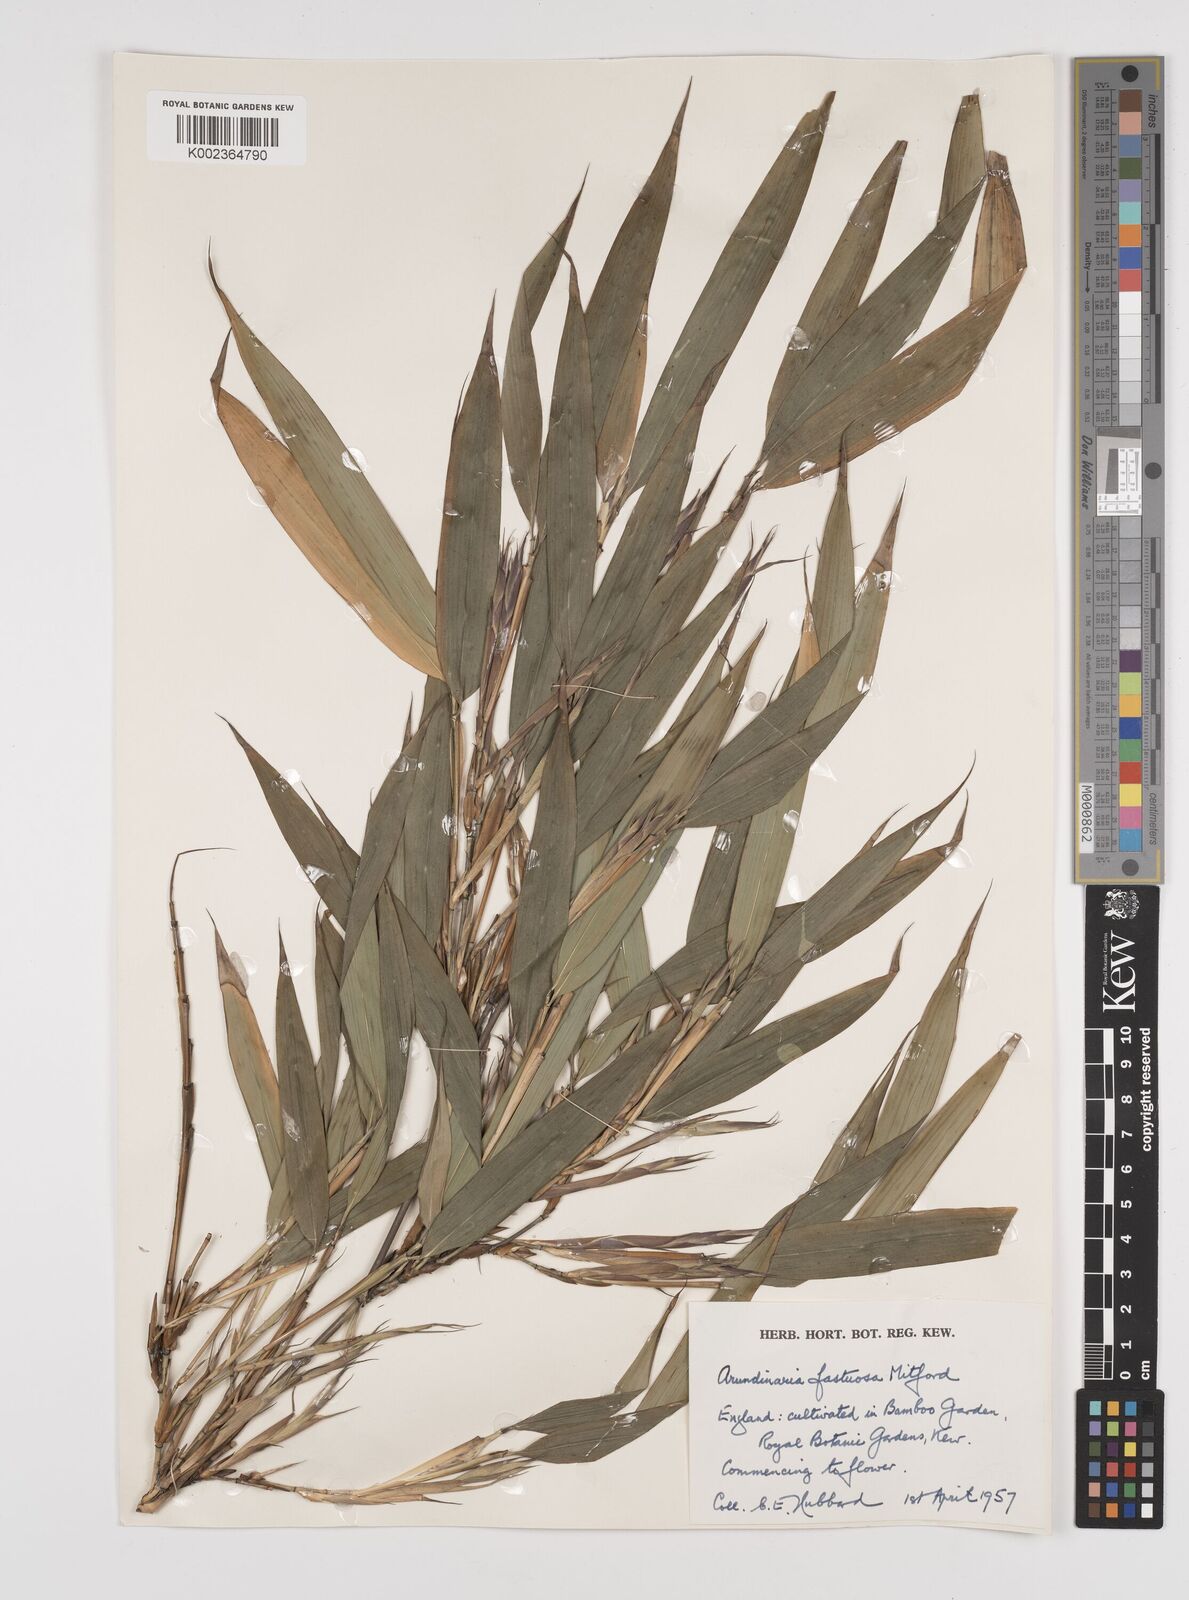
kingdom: Plantae
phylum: Tracheophyta
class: Liliopsida
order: Poales
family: Poaceae
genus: Semiarundinaria
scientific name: Semiarundinaria
